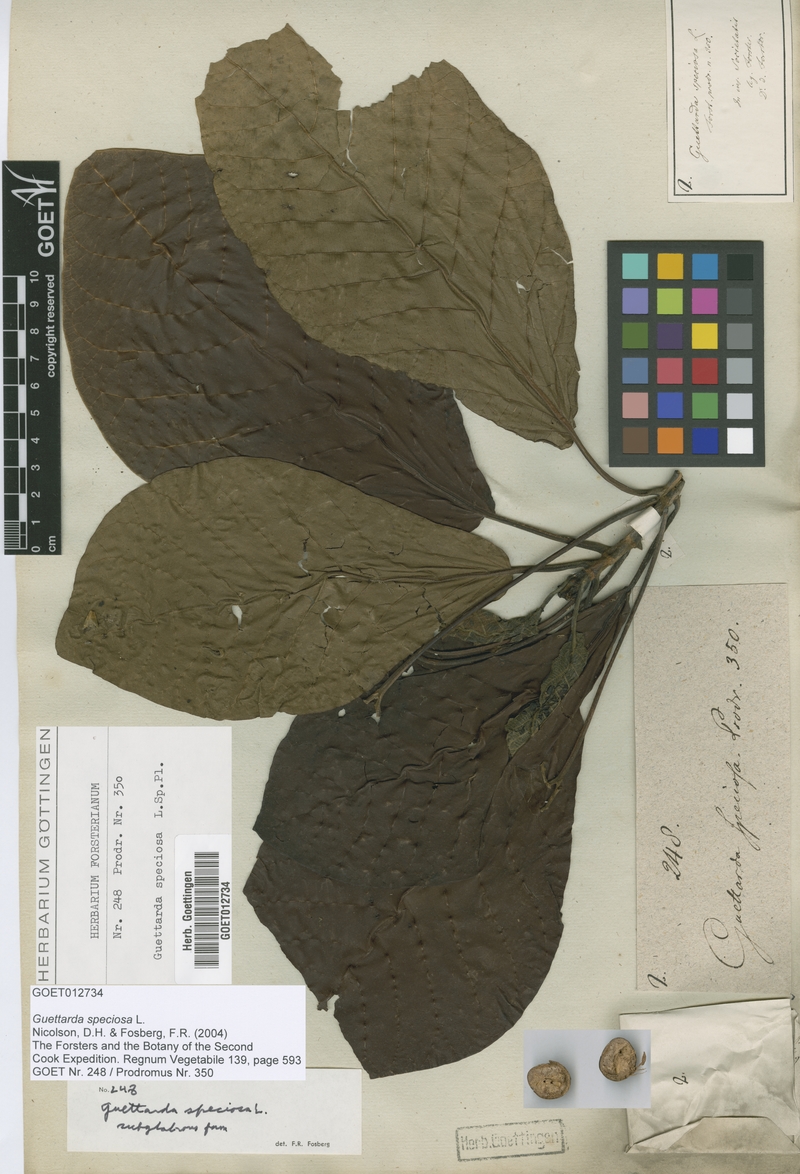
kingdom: Plantae
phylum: Tracheophyta
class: Magnoliopsida
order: Gentianales
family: Rubiaceae
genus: Guettarda
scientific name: Guettarda speciosa
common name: Sea randa
